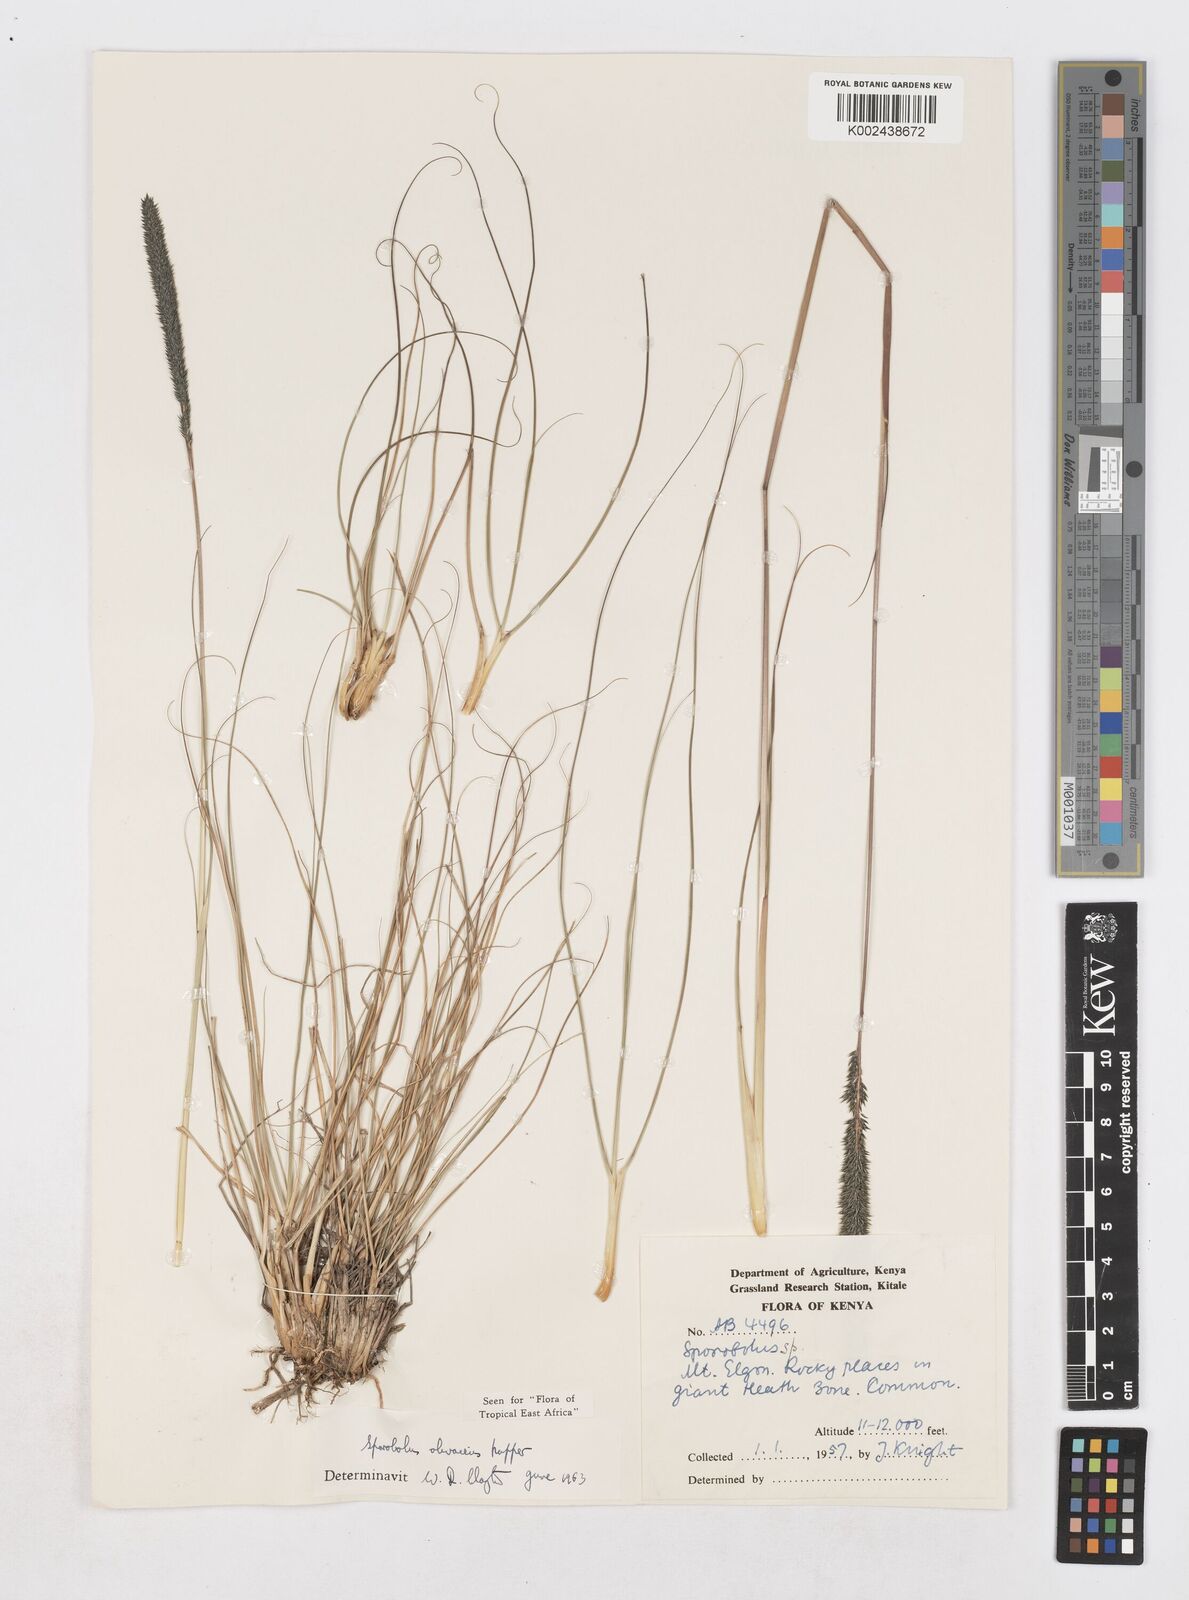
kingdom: Plantae
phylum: Tracheophyta
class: Liliopsida
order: Poales
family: Poaceae
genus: Sporobolus
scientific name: Sporobolus olivaceus
